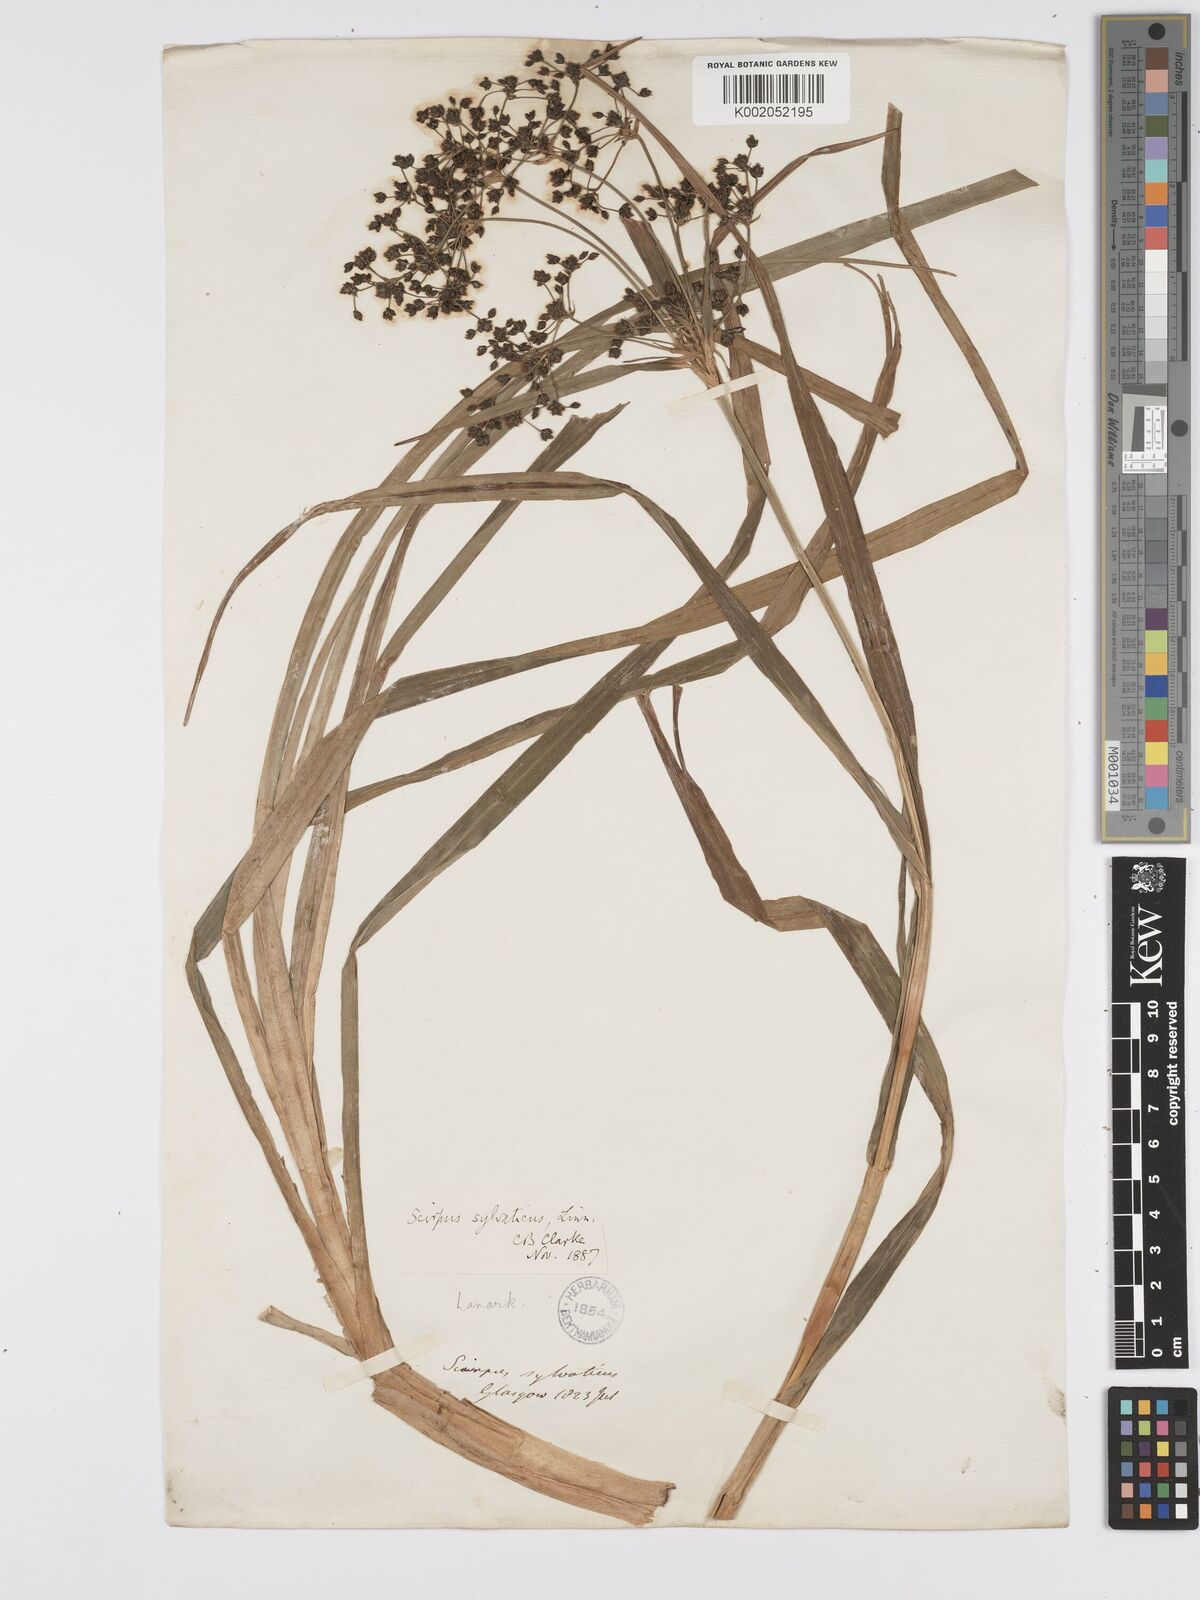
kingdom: Plantae
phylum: Tracheophyta
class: Liliopsida
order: Poales
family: Cyperaceae
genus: Scirpus
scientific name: Scirpus sylvaticus
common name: Wood club-rush
